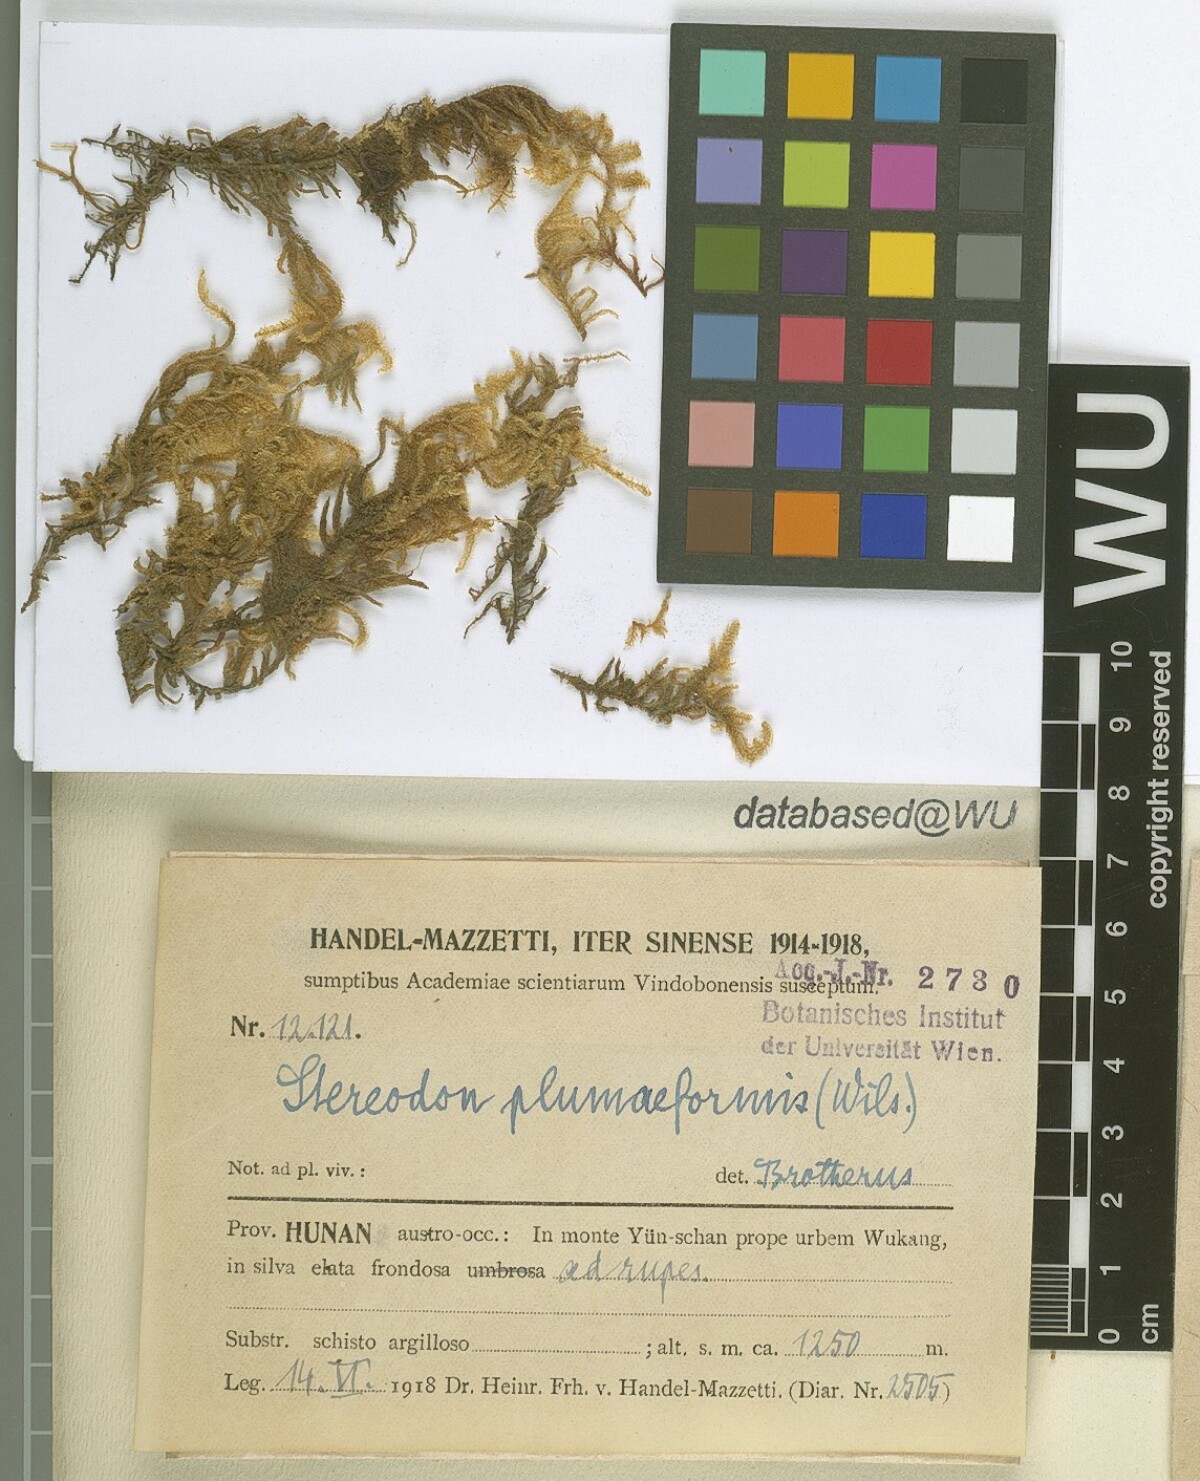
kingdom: Plantae
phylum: Bryophyta
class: Bryopsida
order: Hypnales
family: Hypnaceae
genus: Hypnum
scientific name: Hypnum plumaeforme
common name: Cypress-leaved plaitmoss
